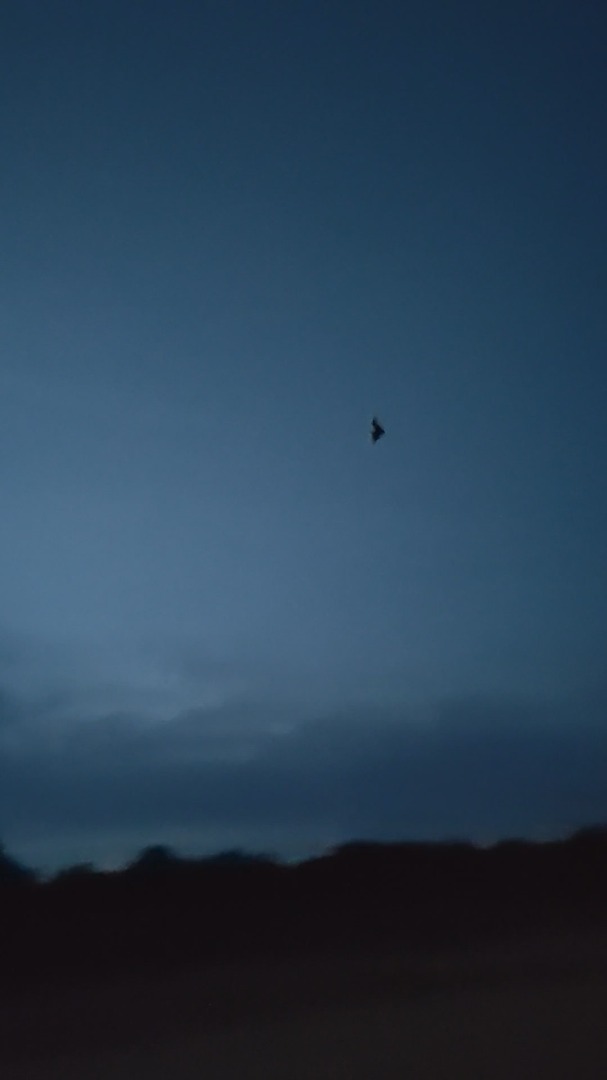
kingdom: Animalia
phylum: Chordata
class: Mammalia
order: Chiroptera
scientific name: Chiroptera
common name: Flagermus
